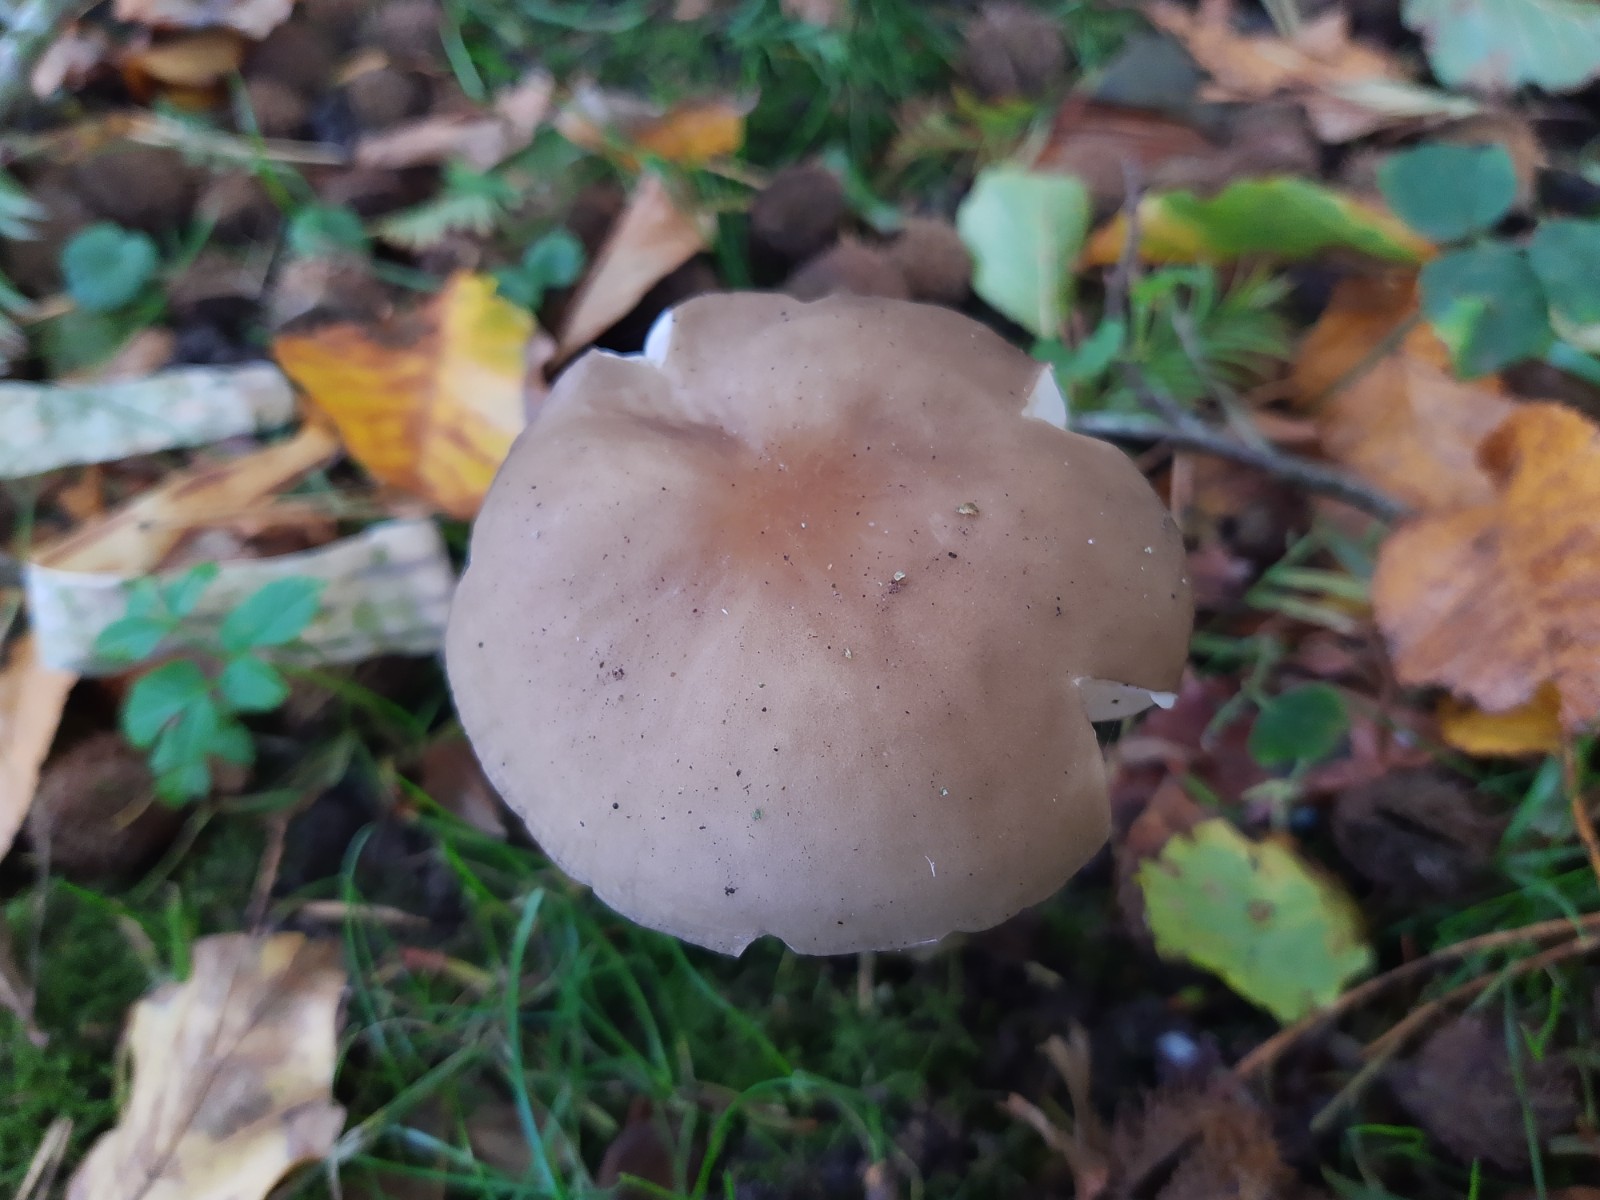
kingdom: Fungi
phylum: Basidiomycota
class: Agaricomycetes
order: Agaricales
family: Physalacriaceae
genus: Hymenopellis
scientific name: Hymenopellis radicata
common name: almindelig pælerodshat
